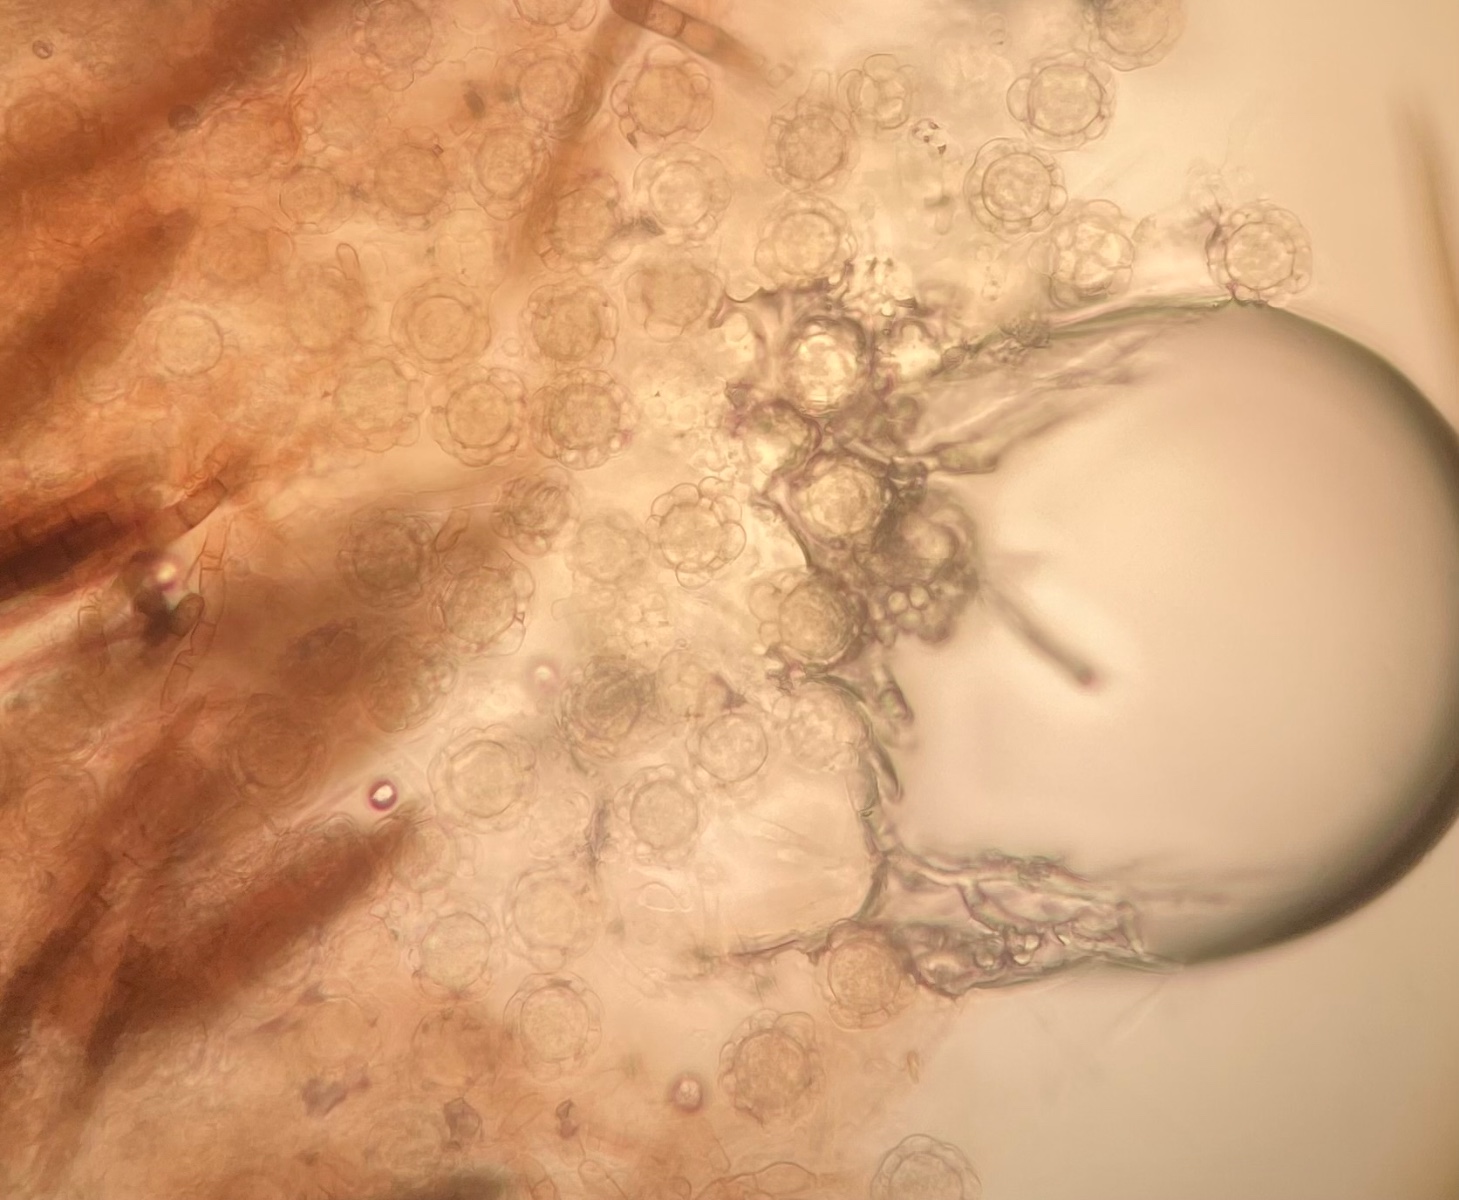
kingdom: Fungi
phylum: Ascomycota
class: Sordariomycetes
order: Hypocreales
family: Hypocreaceae
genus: Hypomyces
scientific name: Hypomyces papulasporae
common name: jordtunge-snylteskorpe
